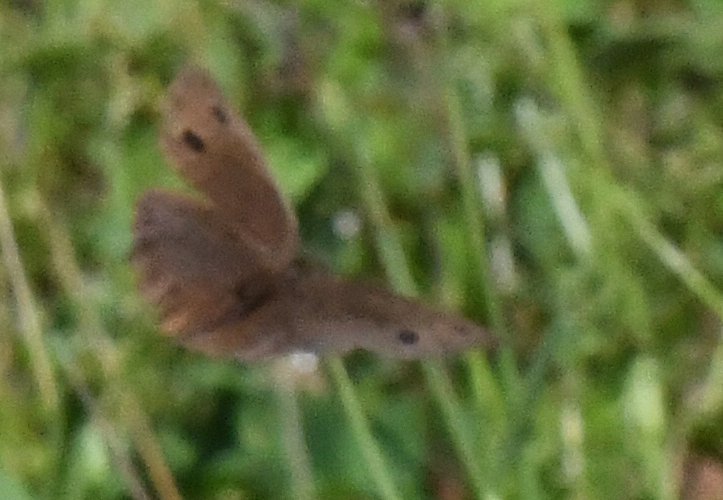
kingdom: Animalia
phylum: Arthropoda
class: Insecta
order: Lepidoptera
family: Nymphalidae
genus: Cercyonis
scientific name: Cercyonis pegala
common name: Common Wood-Nymph
